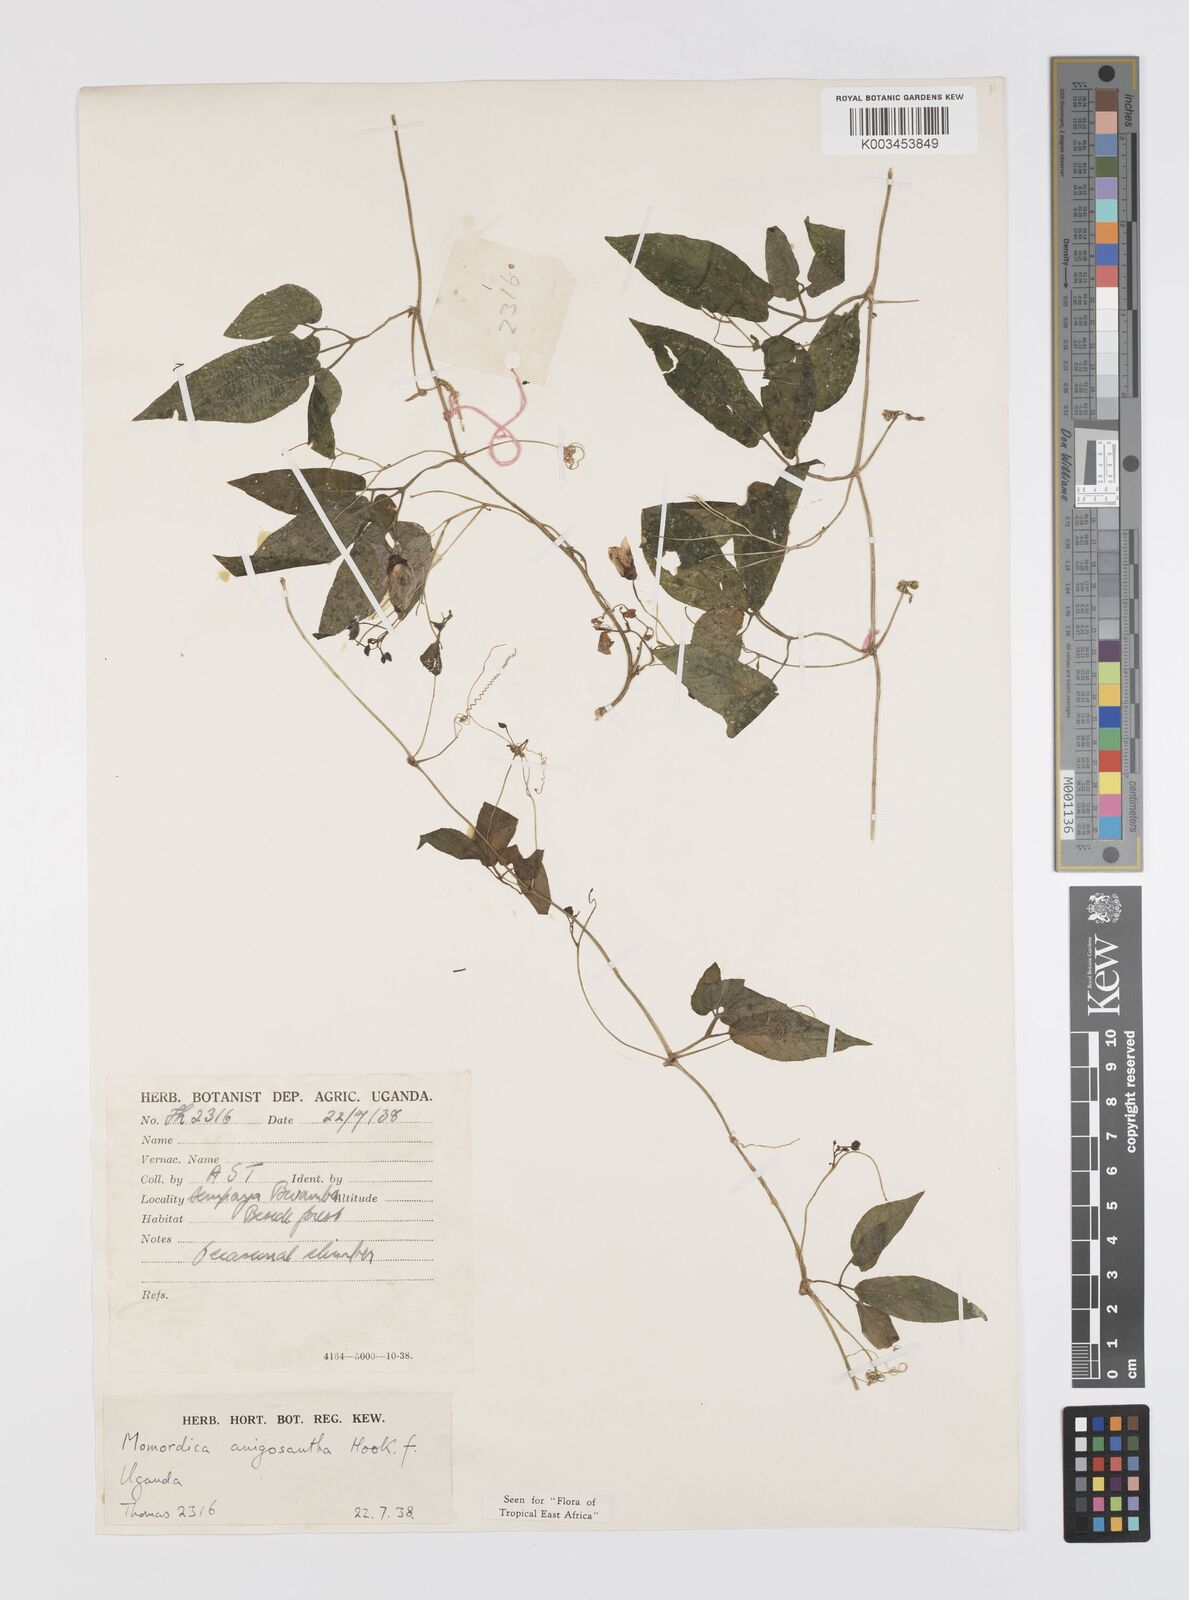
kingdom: Plantae
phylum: Tracheophyta
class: Magnoliopsida
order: Cucurbitales
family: Cucurbitaceae
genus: Momordica
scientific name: Momordica anigosantha
